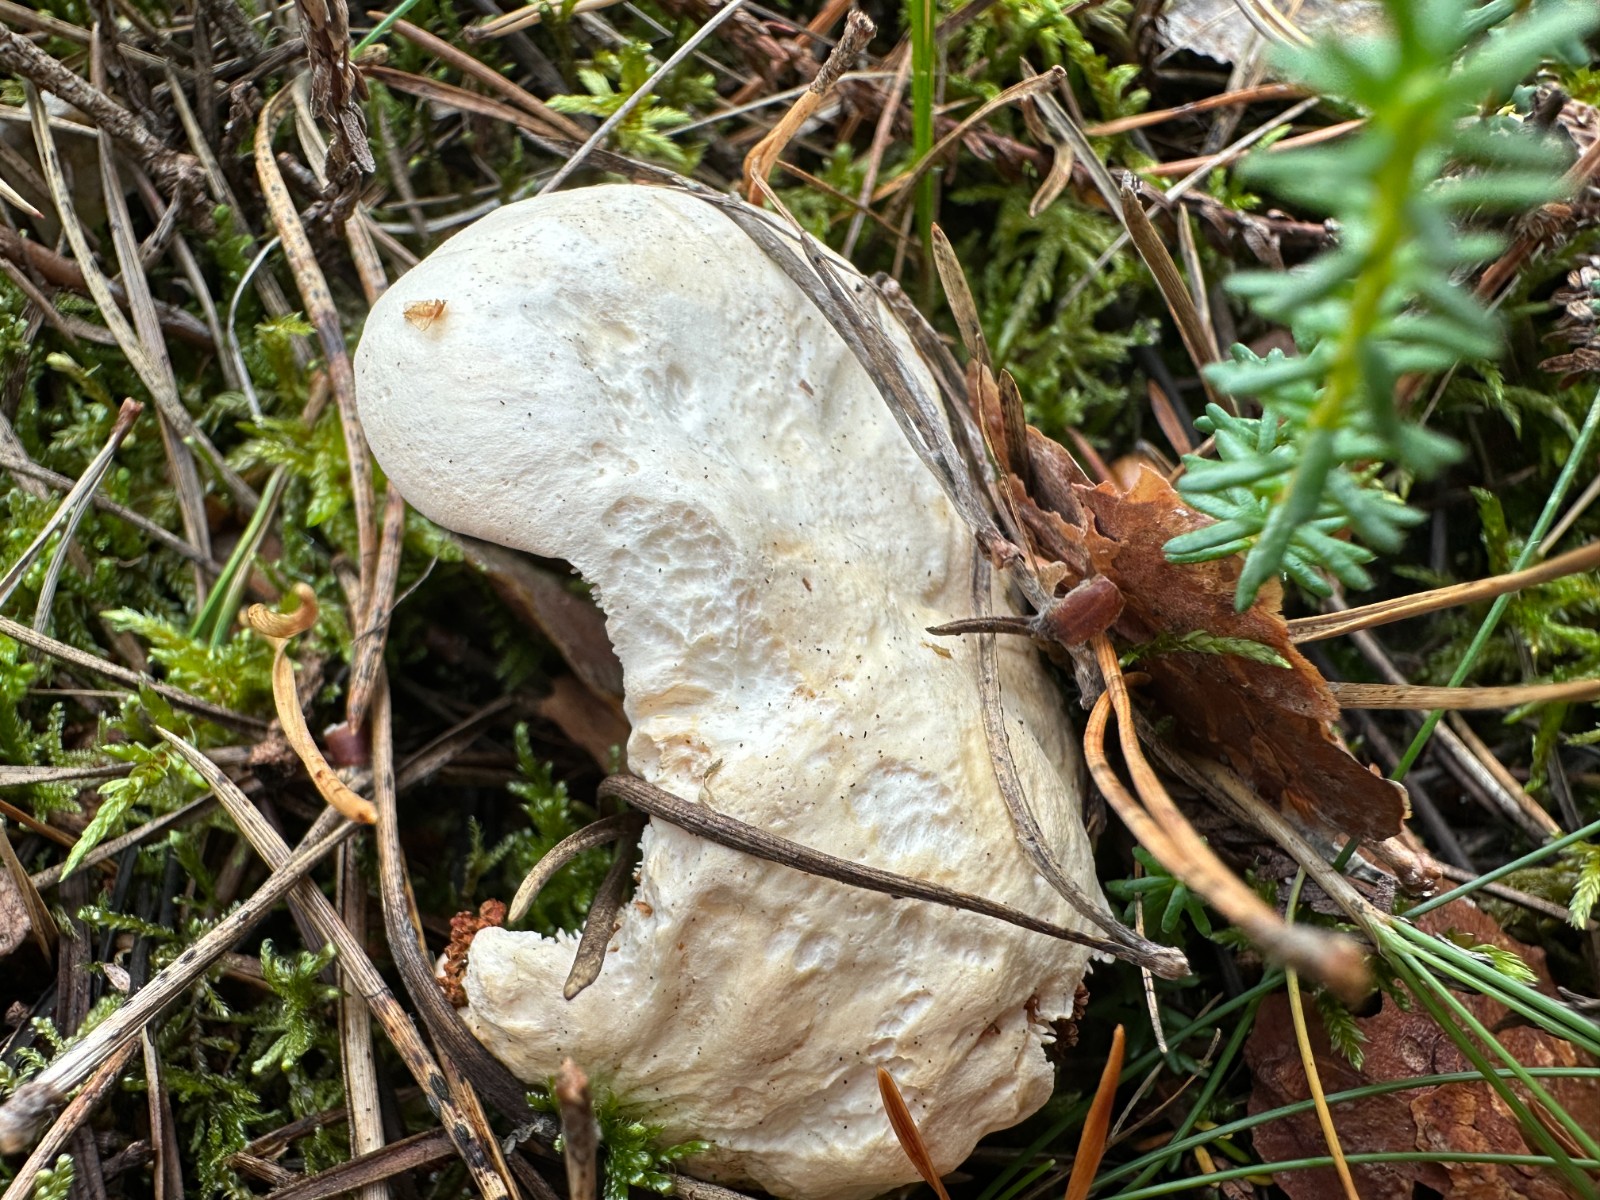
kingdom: Fungi
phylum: Basidiomycota
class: Agaricomycetes
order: Cantharellales
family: Hydnaceae
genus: Hydnum
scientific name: Hydnum repandum
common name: almindelig pigsvamp
